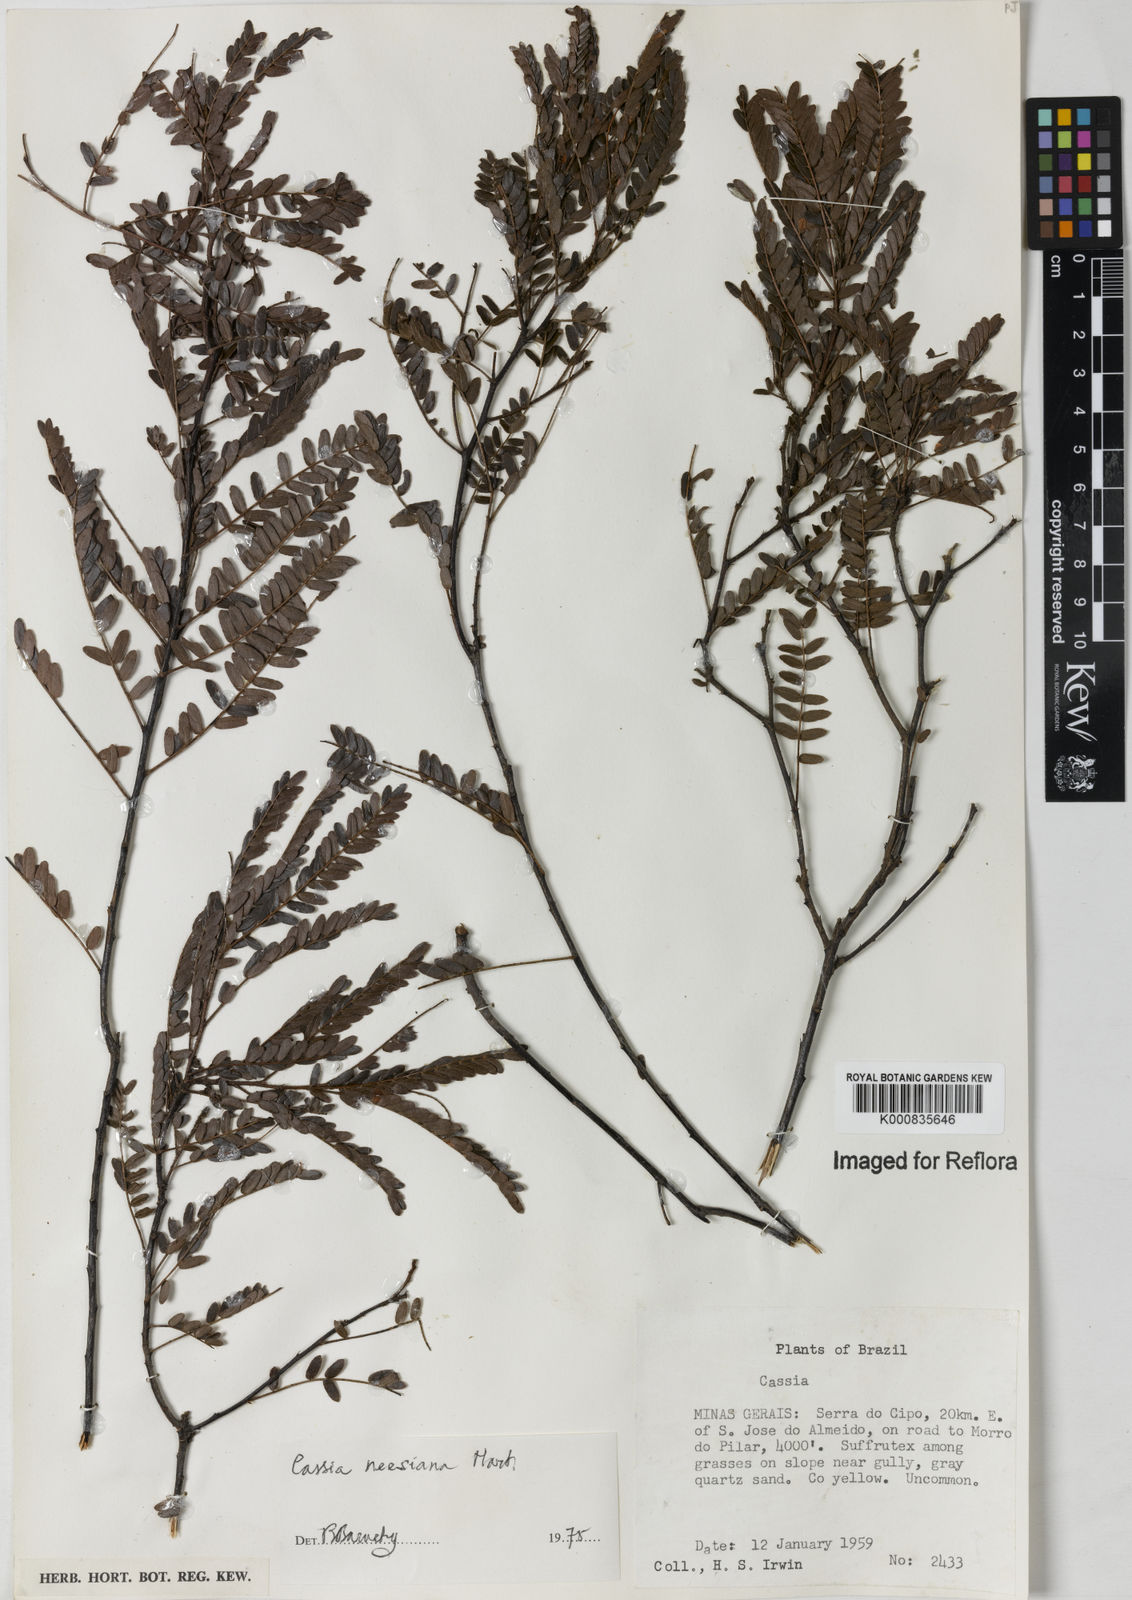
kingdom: Plantae
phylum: Tracheophyta
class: Magnoliopsida
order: Fabales
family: Fabaceae
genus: Chamaecrista
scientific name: Chamaecrista neesiana
